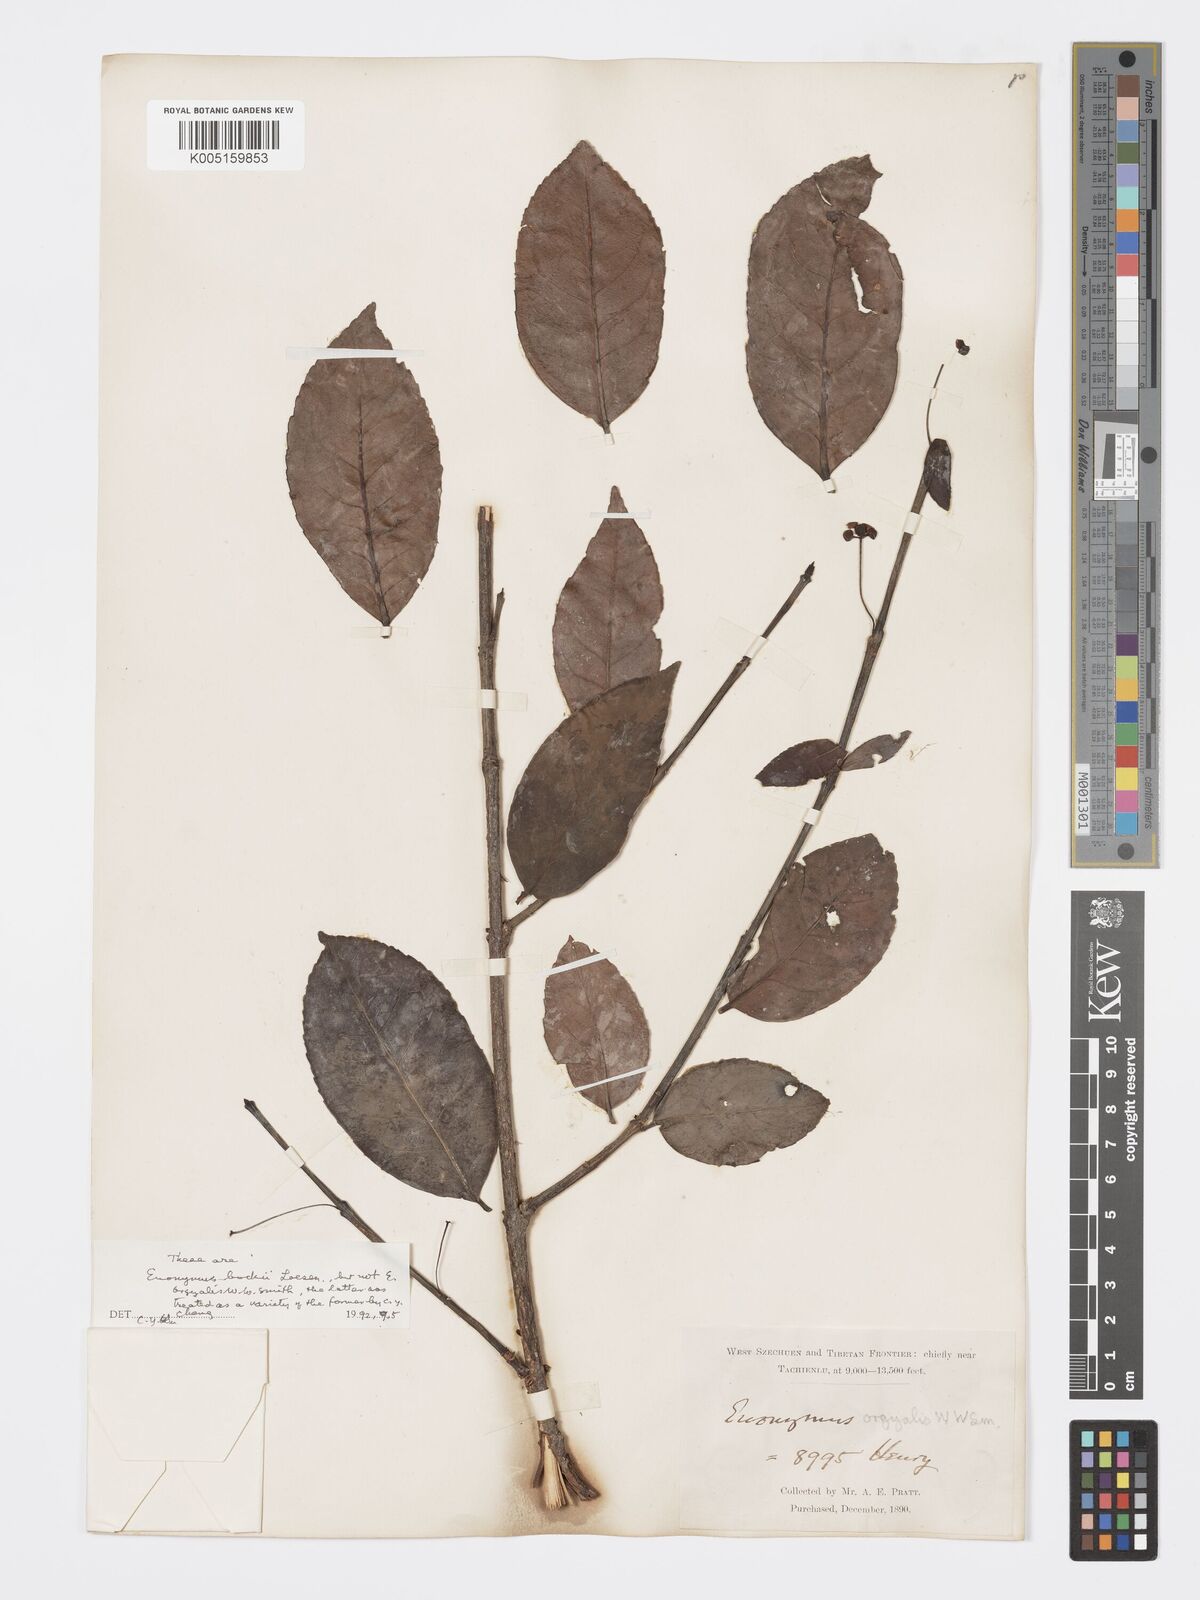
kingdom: Plantae
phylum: Tracheophyta
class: Magnoliopsida
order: Celastrales
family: Celastraceae
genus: Euonymus
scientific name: Euonymus bockii
